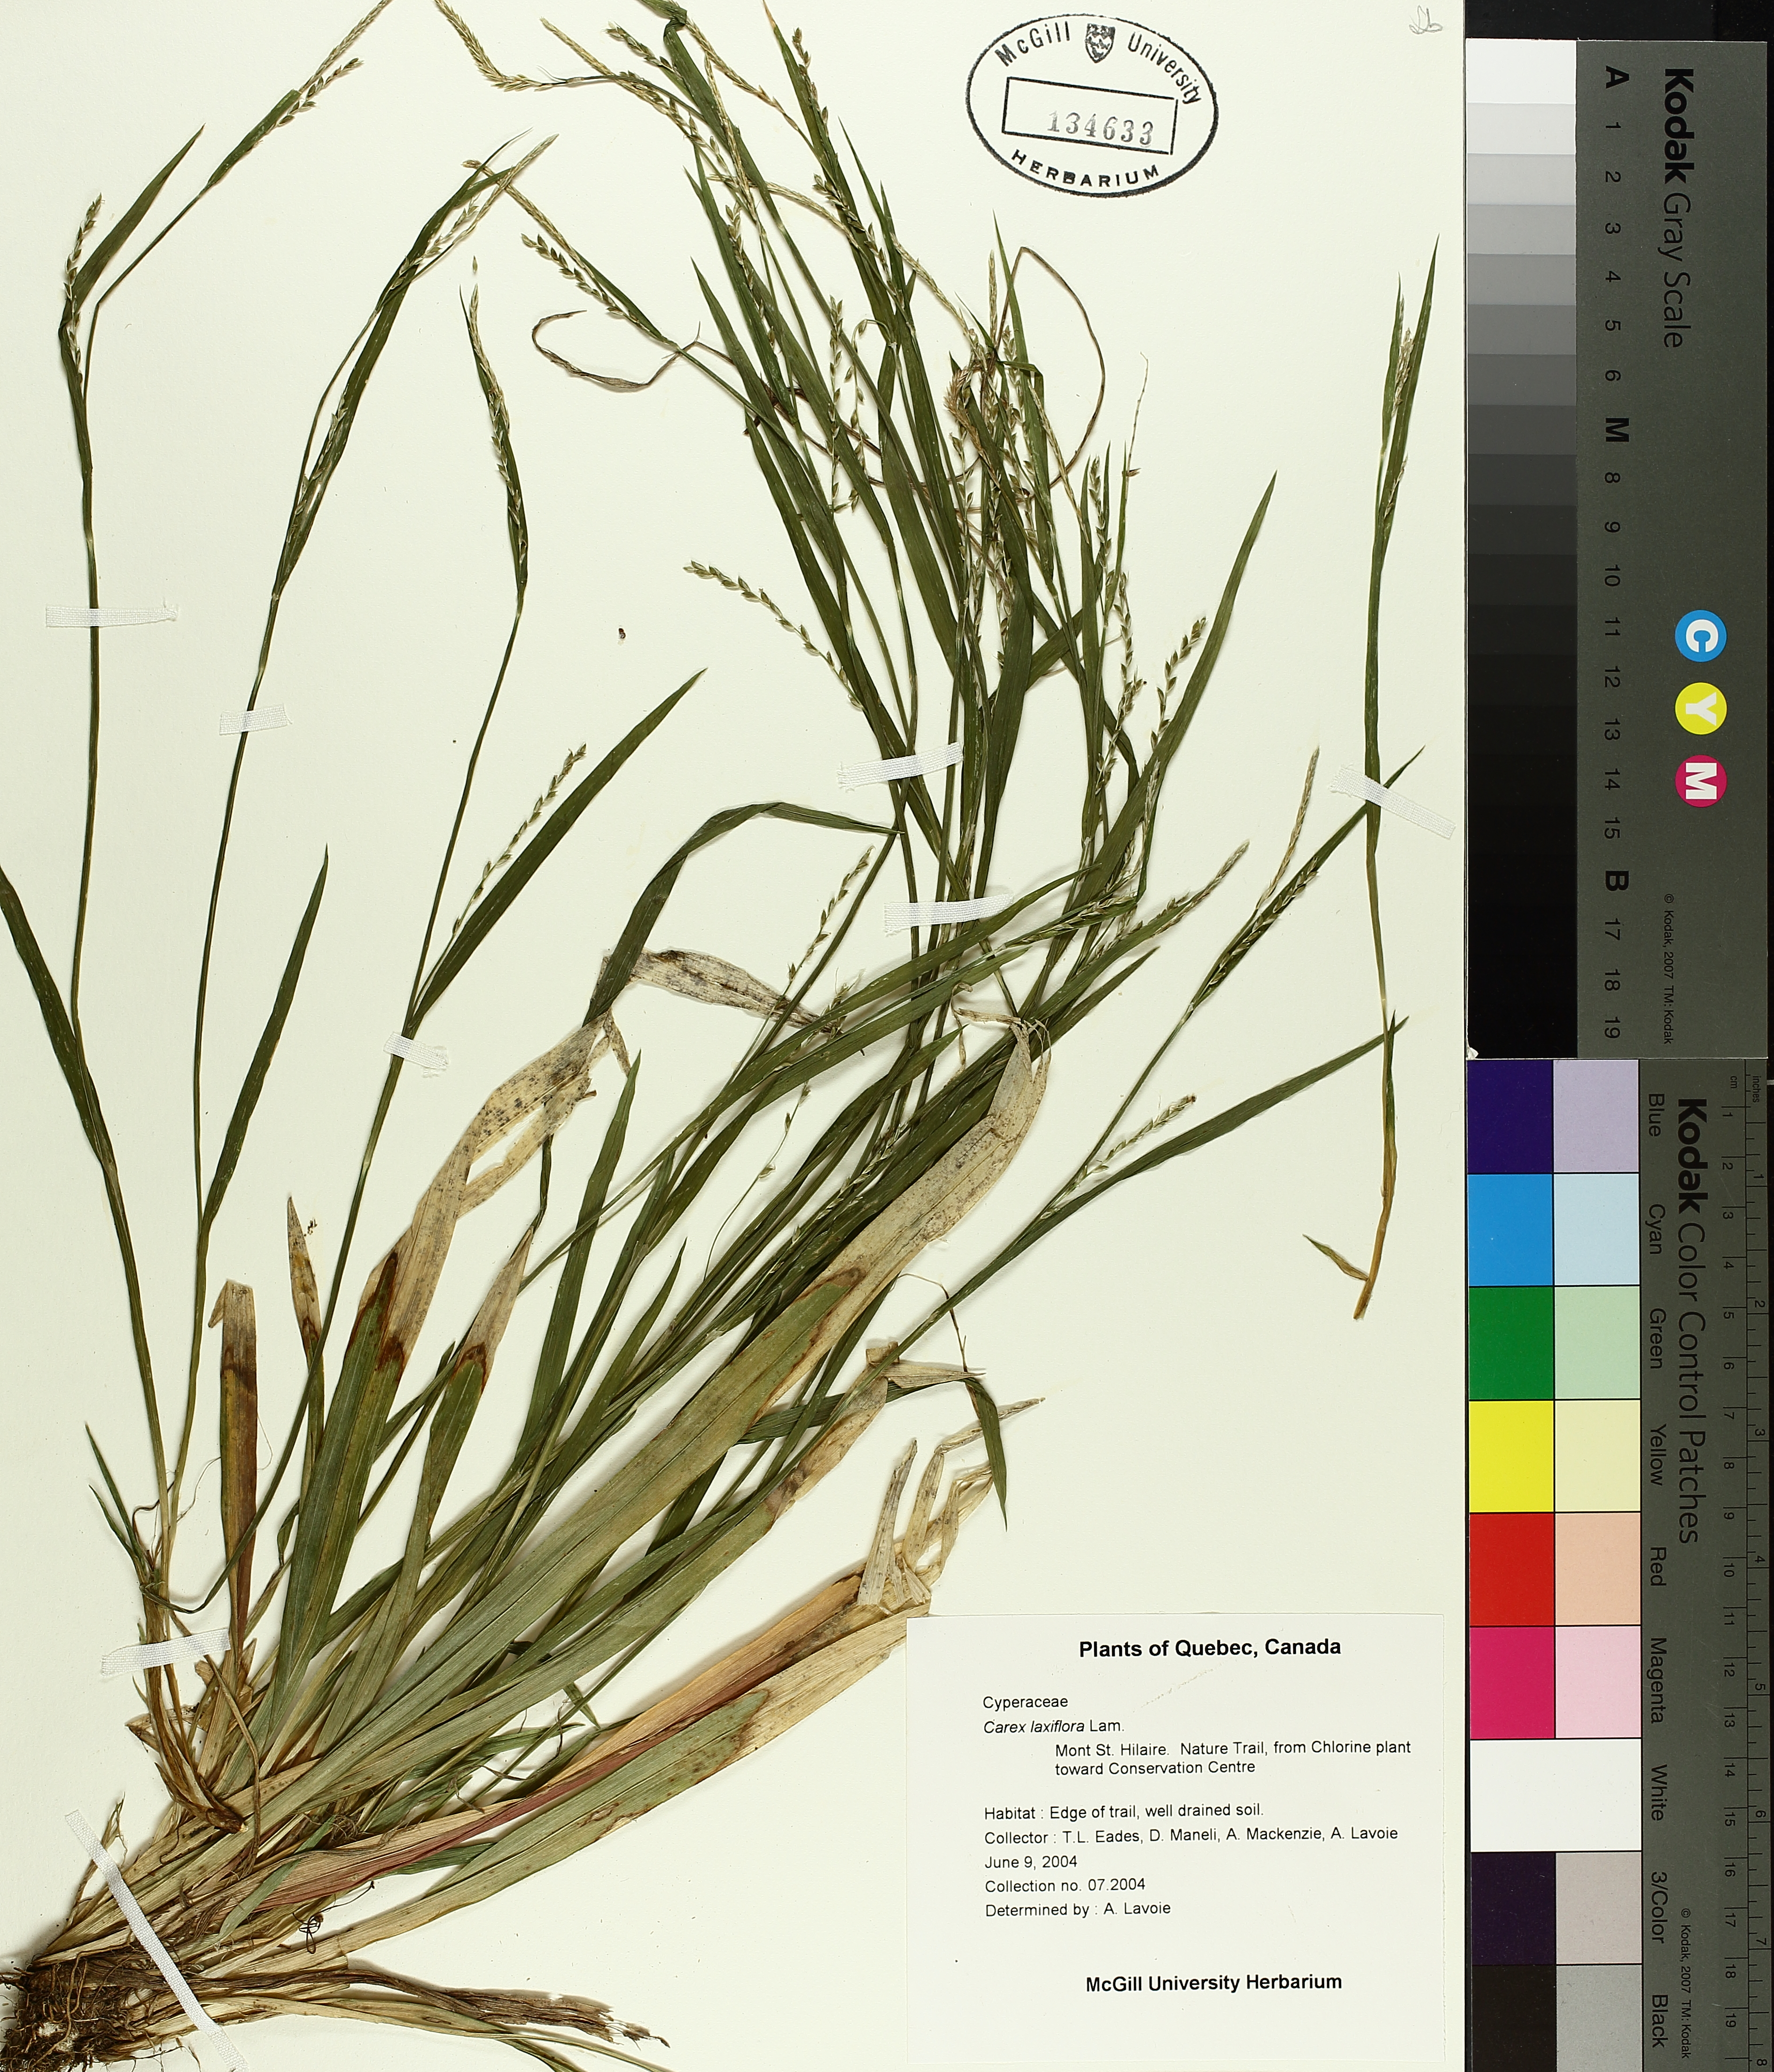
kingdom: Plantae
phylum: Tracheophyta
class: Liliopsida
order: Poales
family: Cyperaceae
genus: Carex
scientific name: Carex laxiflora
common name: Beech wood sedge
